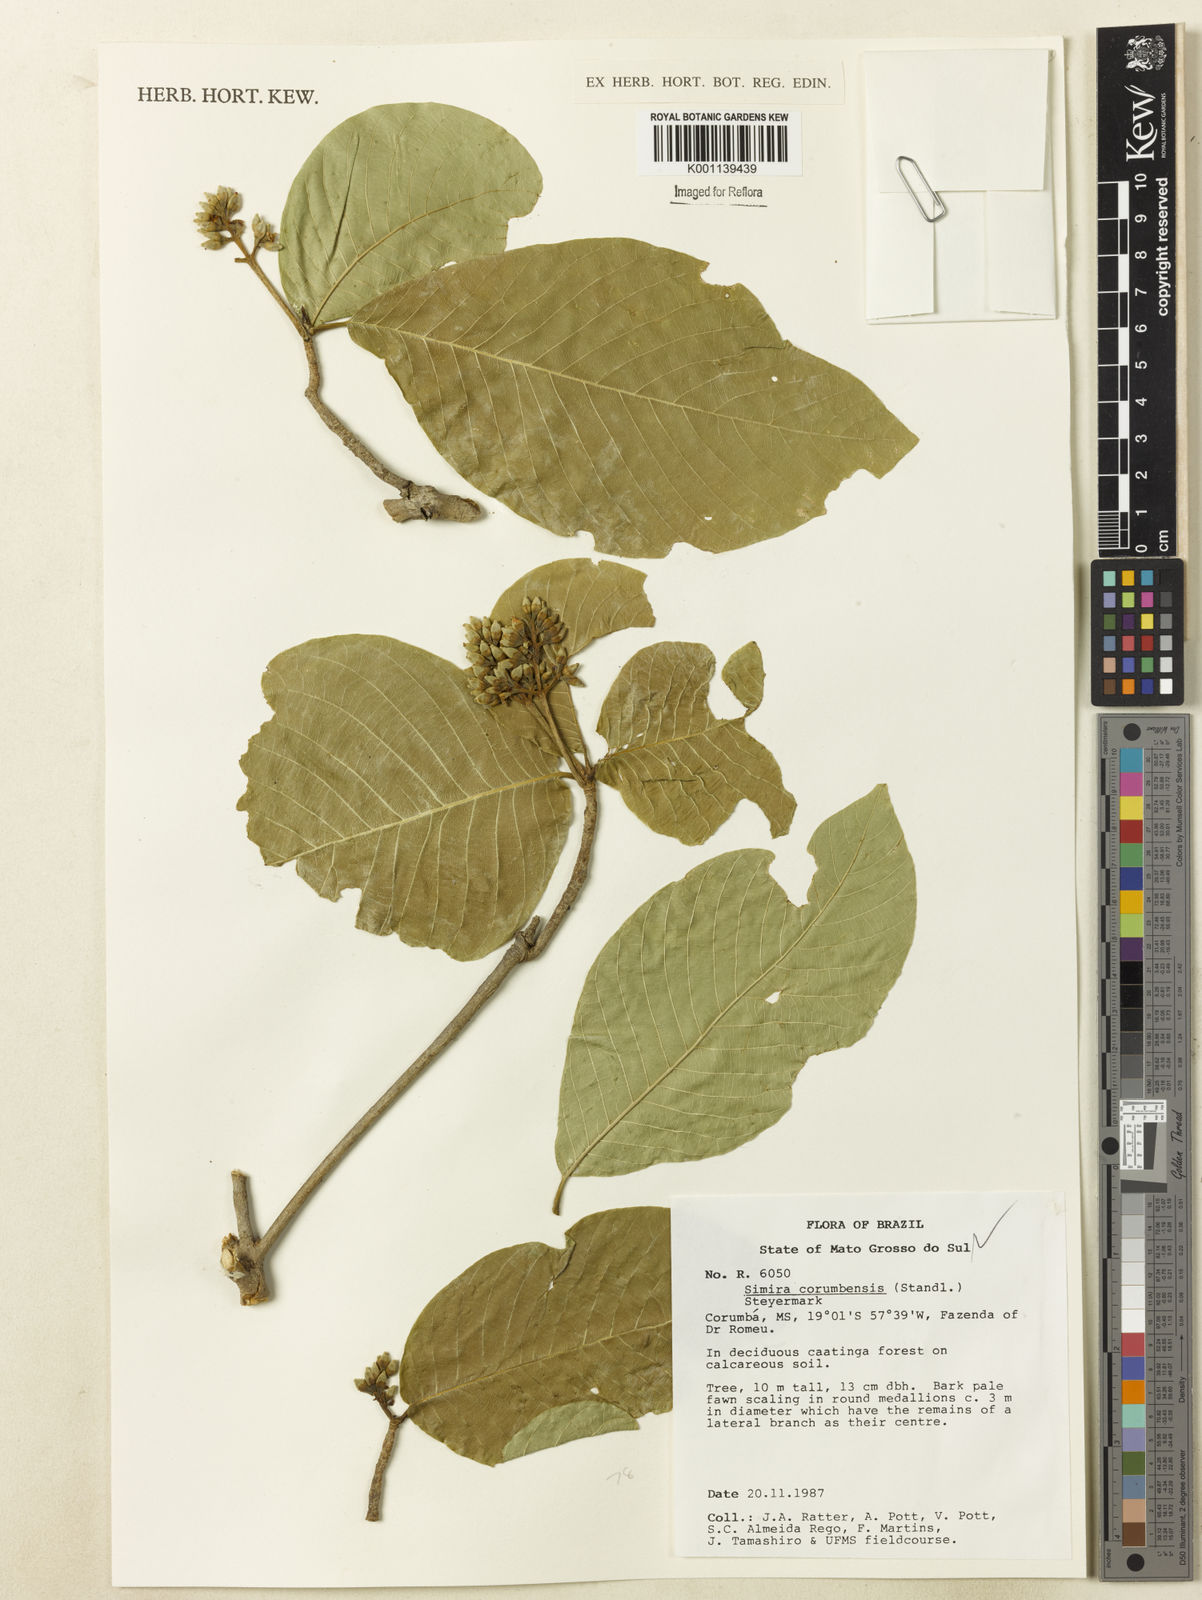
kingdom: Plantae
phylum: Tracheophyta
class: Magnoliopsida
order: Gentianales
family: Rubiaceae
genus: Simira
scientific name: Simira corumbensis
